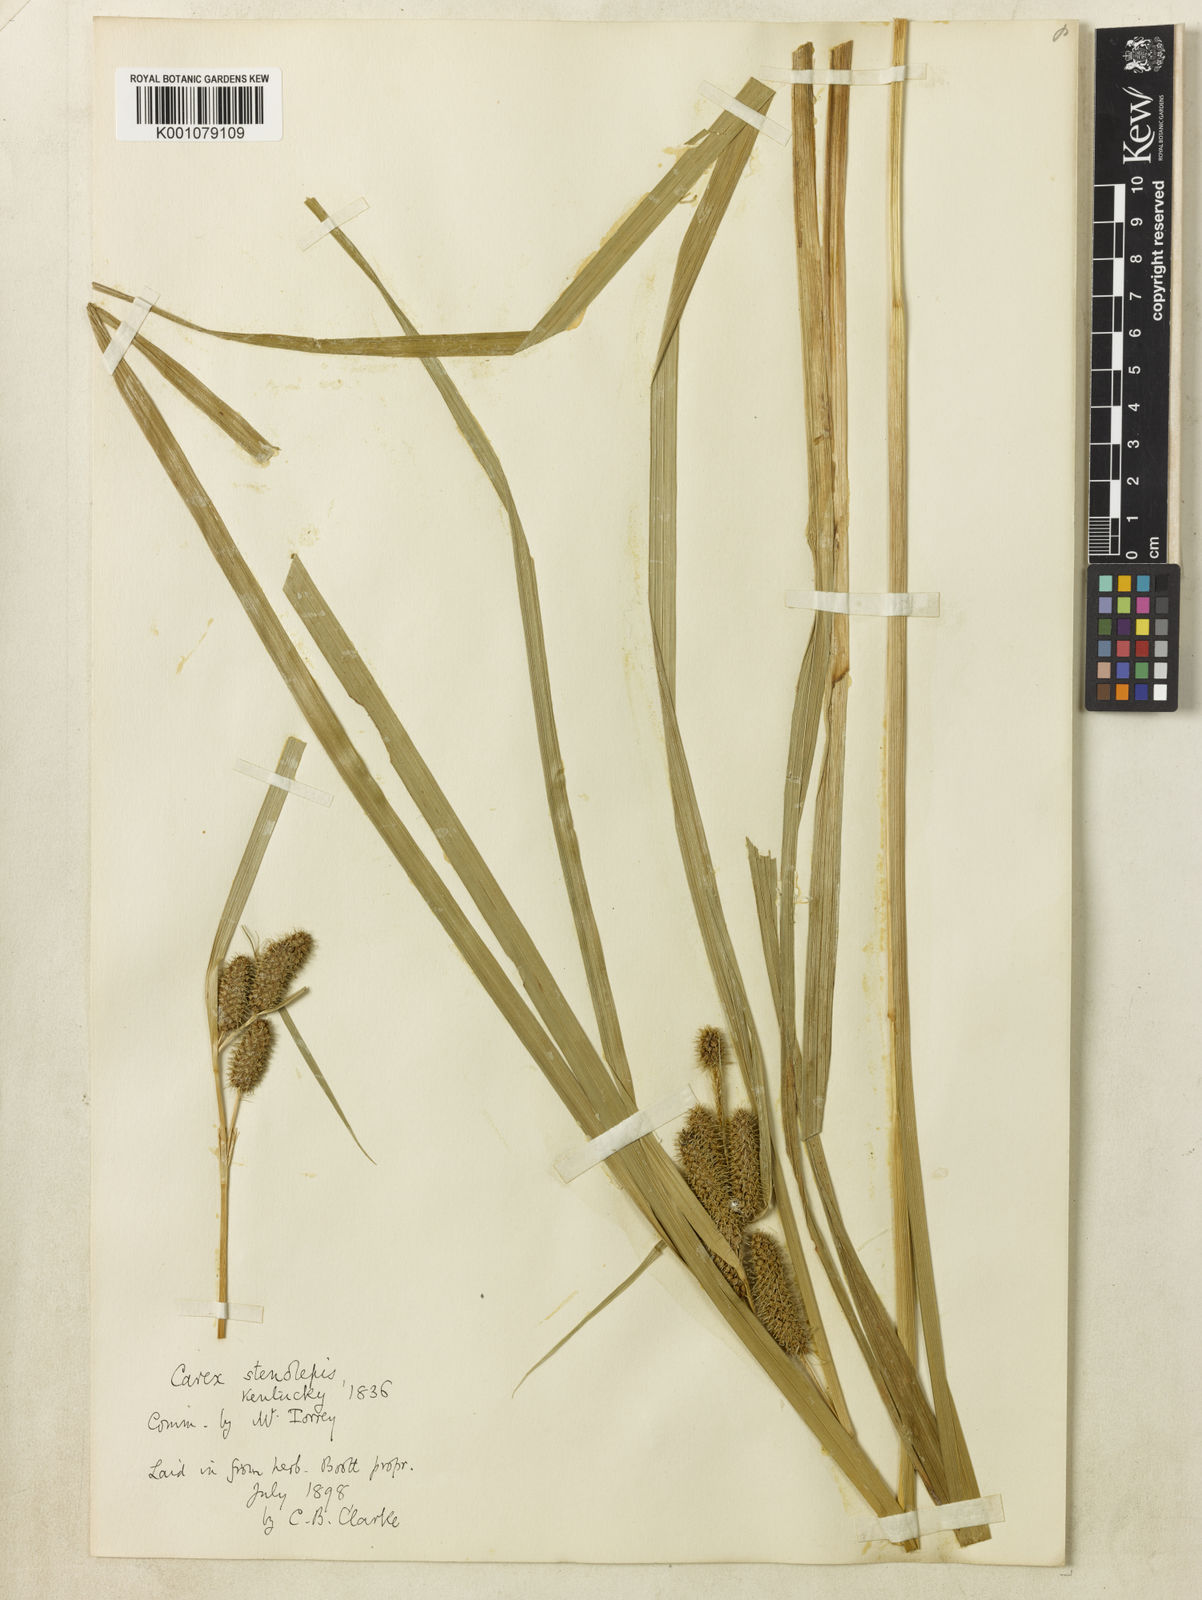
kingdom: Plantae
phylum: Tracheophyta
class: Liliopsida
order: Poales
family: Cyperaceae
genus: Carex
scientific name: Carex frankii
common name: Frank's sedge
